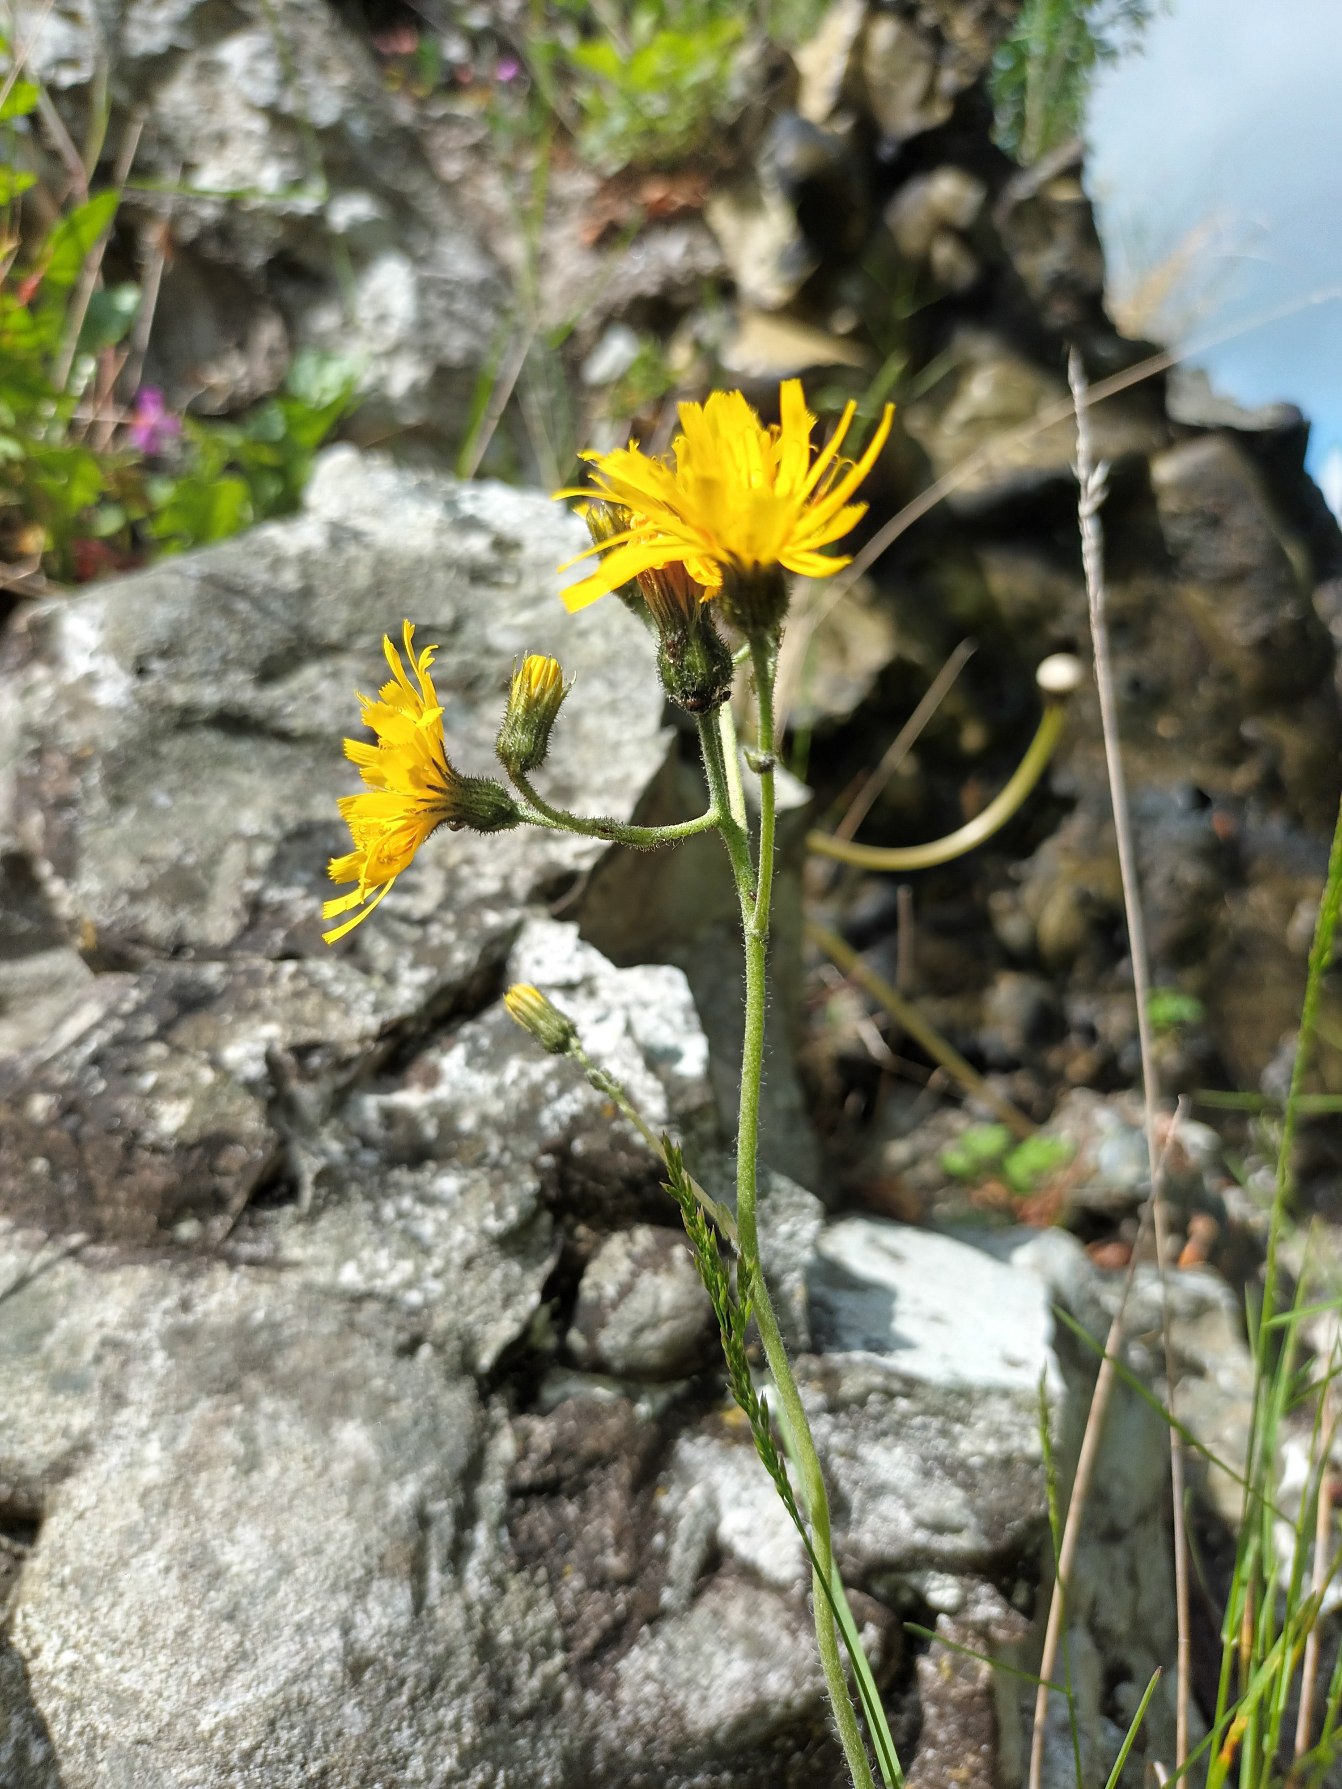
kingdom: Plantae
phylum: Tracheophyta
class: Magnoliopsida
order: Asterales
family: Asteraceae
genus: Hieracium
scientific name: Hieracium
